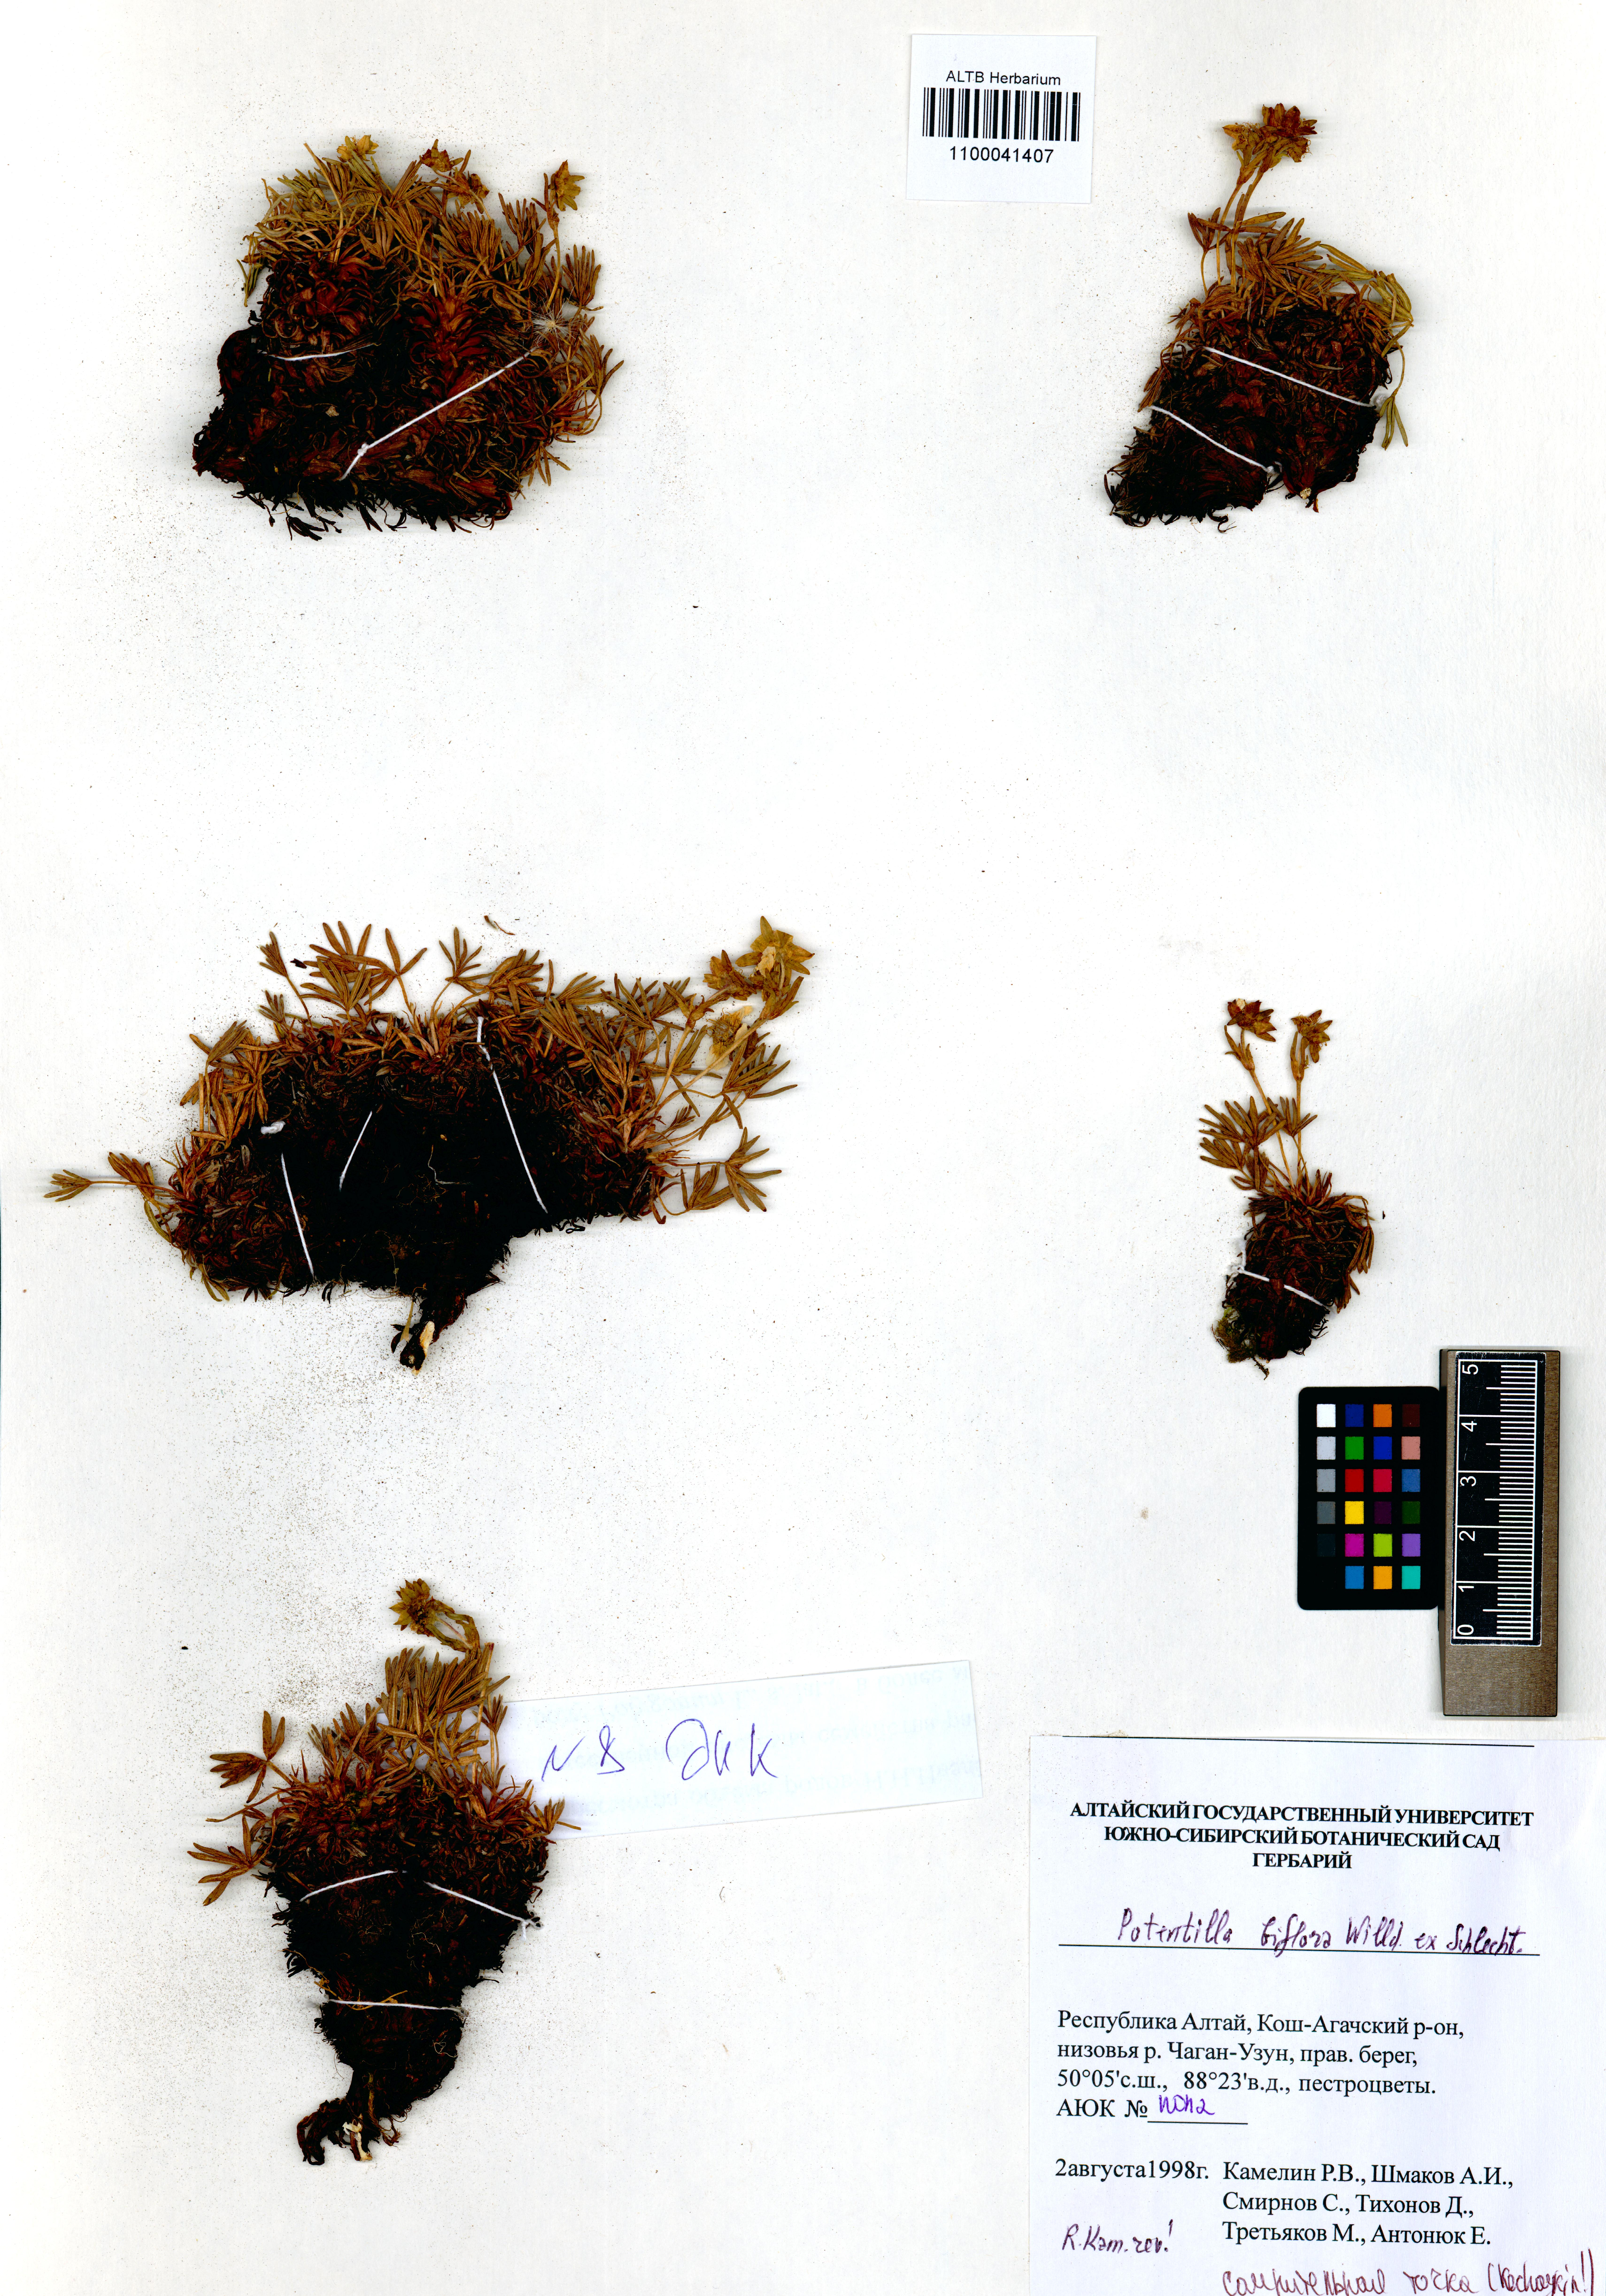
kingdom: Plantae
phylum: Tracheophyta
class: Magnoliopsida
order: Rosales
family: Rosaceae
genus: Potentilla
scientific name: Potentilla biflora
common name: Two-flowered cinquefoil
